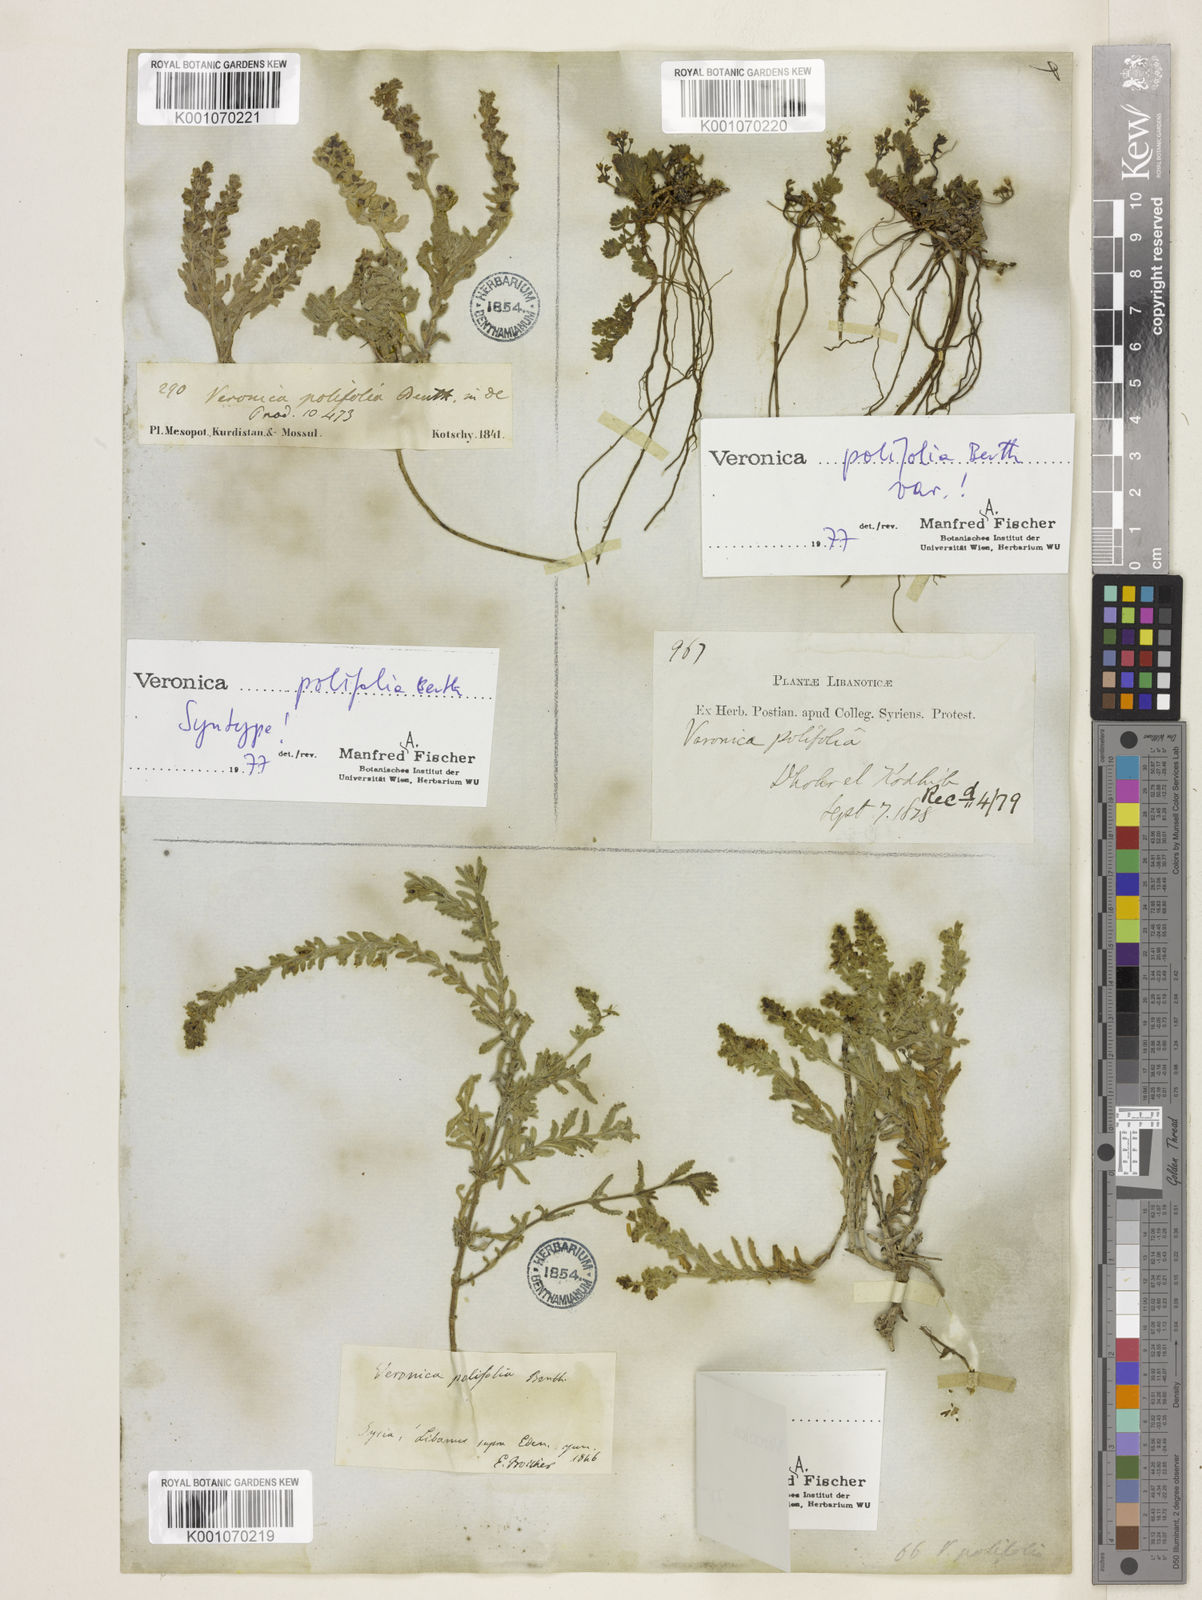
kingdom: Plantae
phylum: Tracheophyta
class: Magnoliopsida
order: Lamiales
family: Plantaginaceae
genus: Veronica
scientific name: Veronica polifolia
